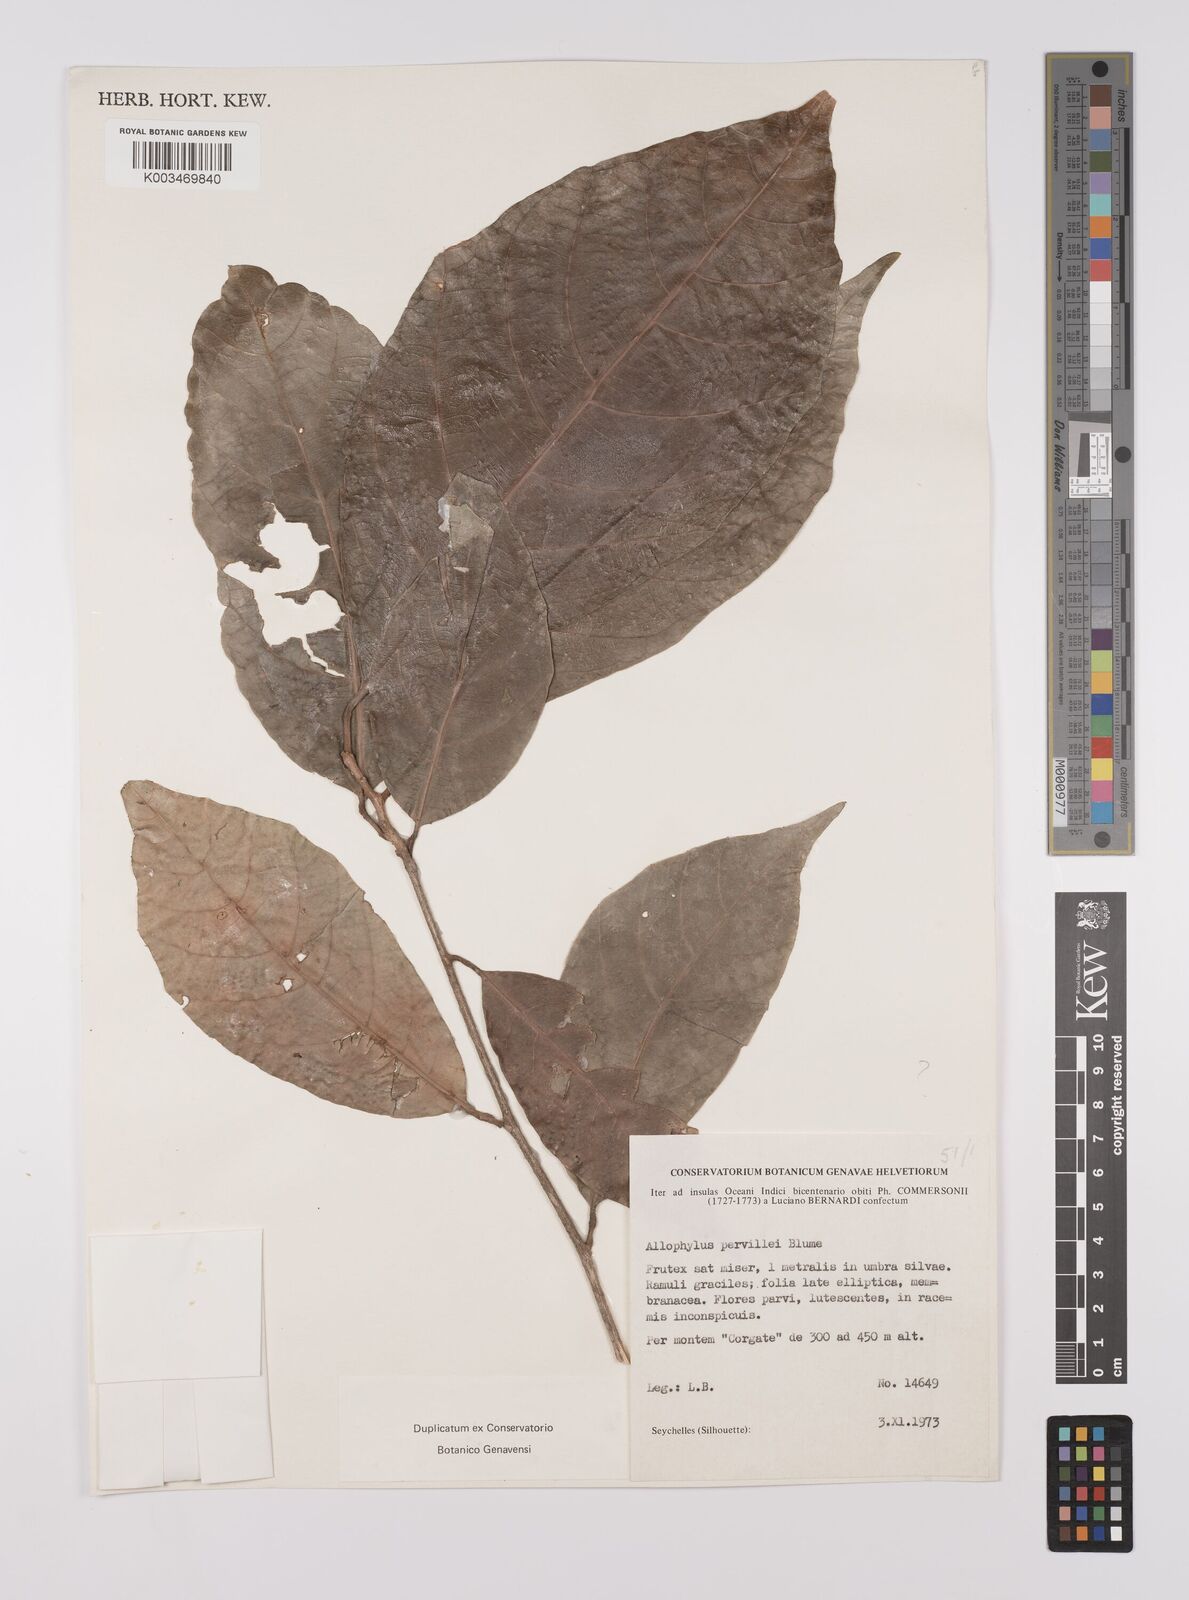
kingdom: Plantae
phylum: Tracheophyta
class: Magnoliopsida
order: Sapindales
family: Sapindaceae
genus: Allophylus
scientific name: Allophylus pervillei
